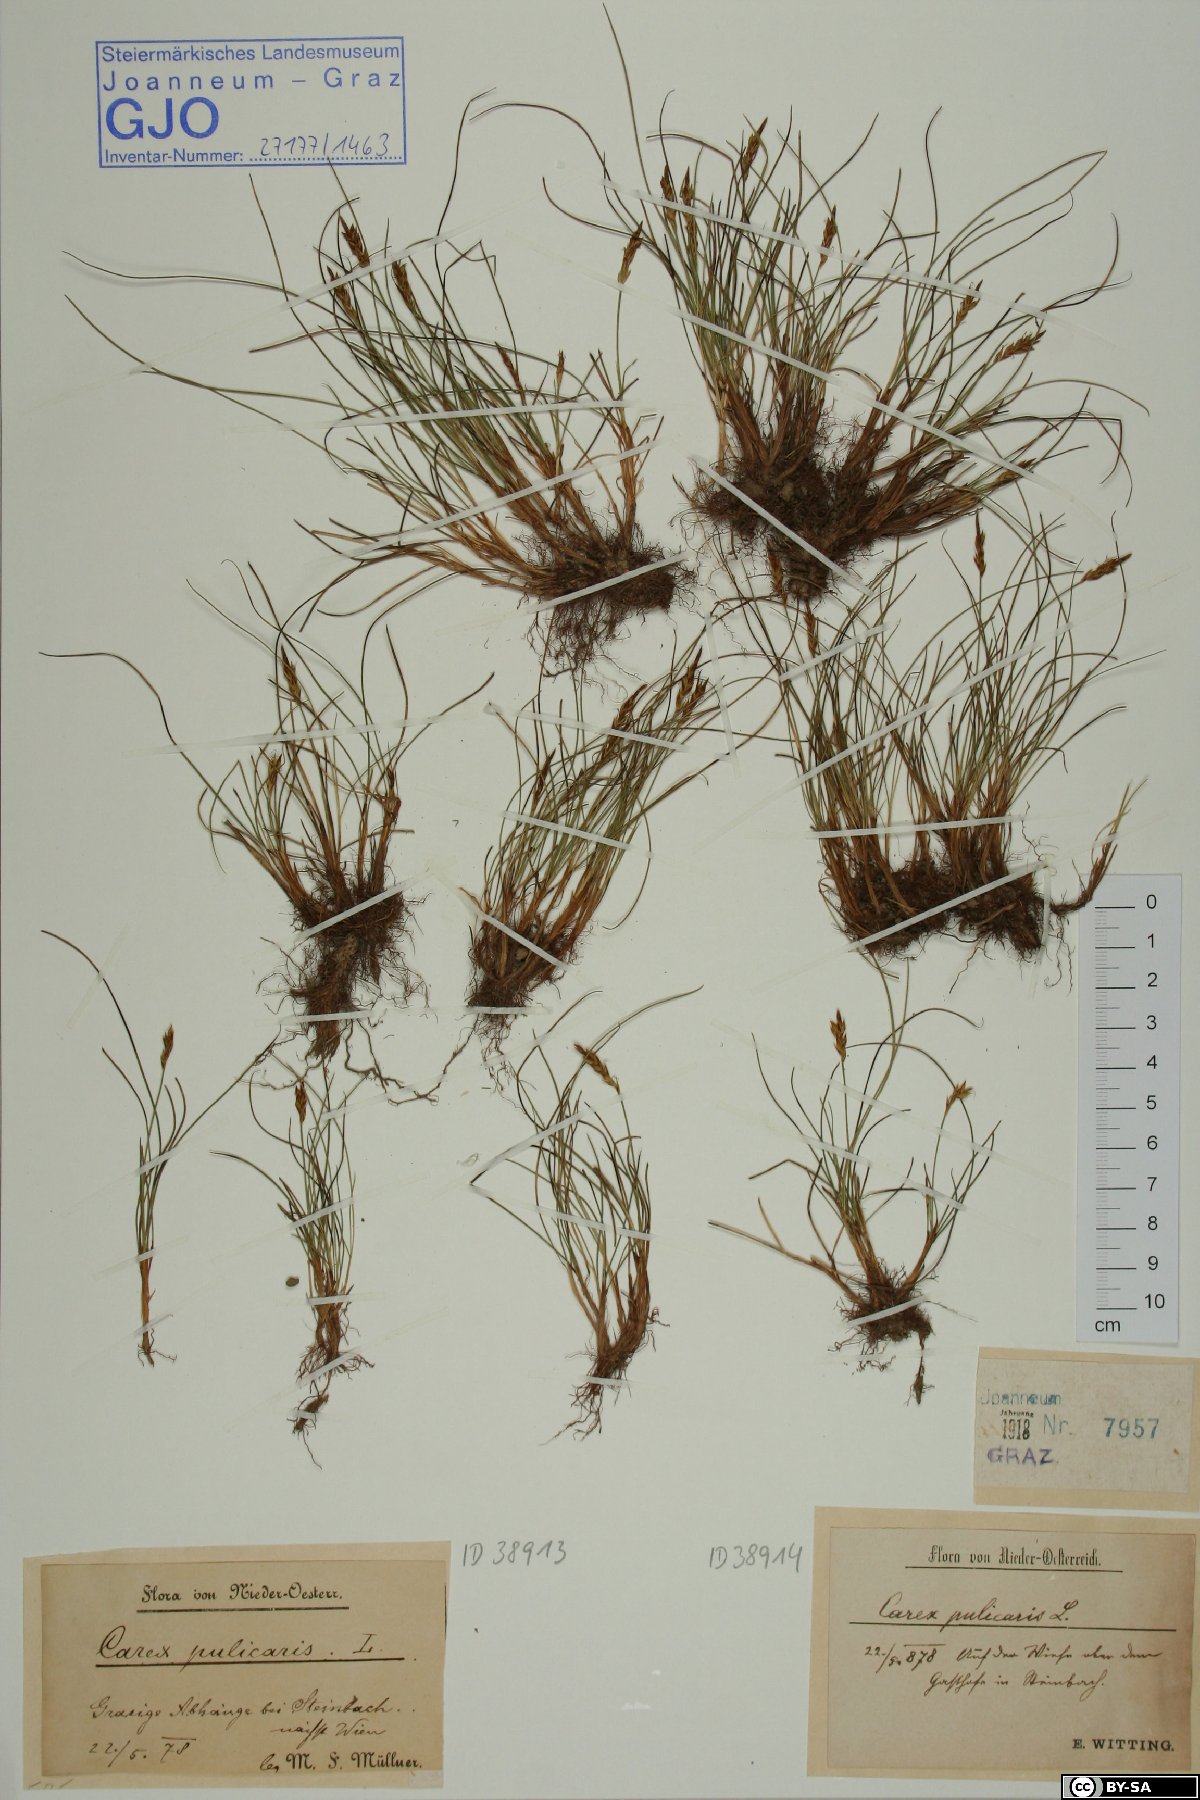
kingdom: Plantae
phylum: Tracheophyta
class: Liliopsida
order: Poales
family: Cyperaceae
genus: Carex
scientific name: Carex pulicaris
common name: Flea sedge
